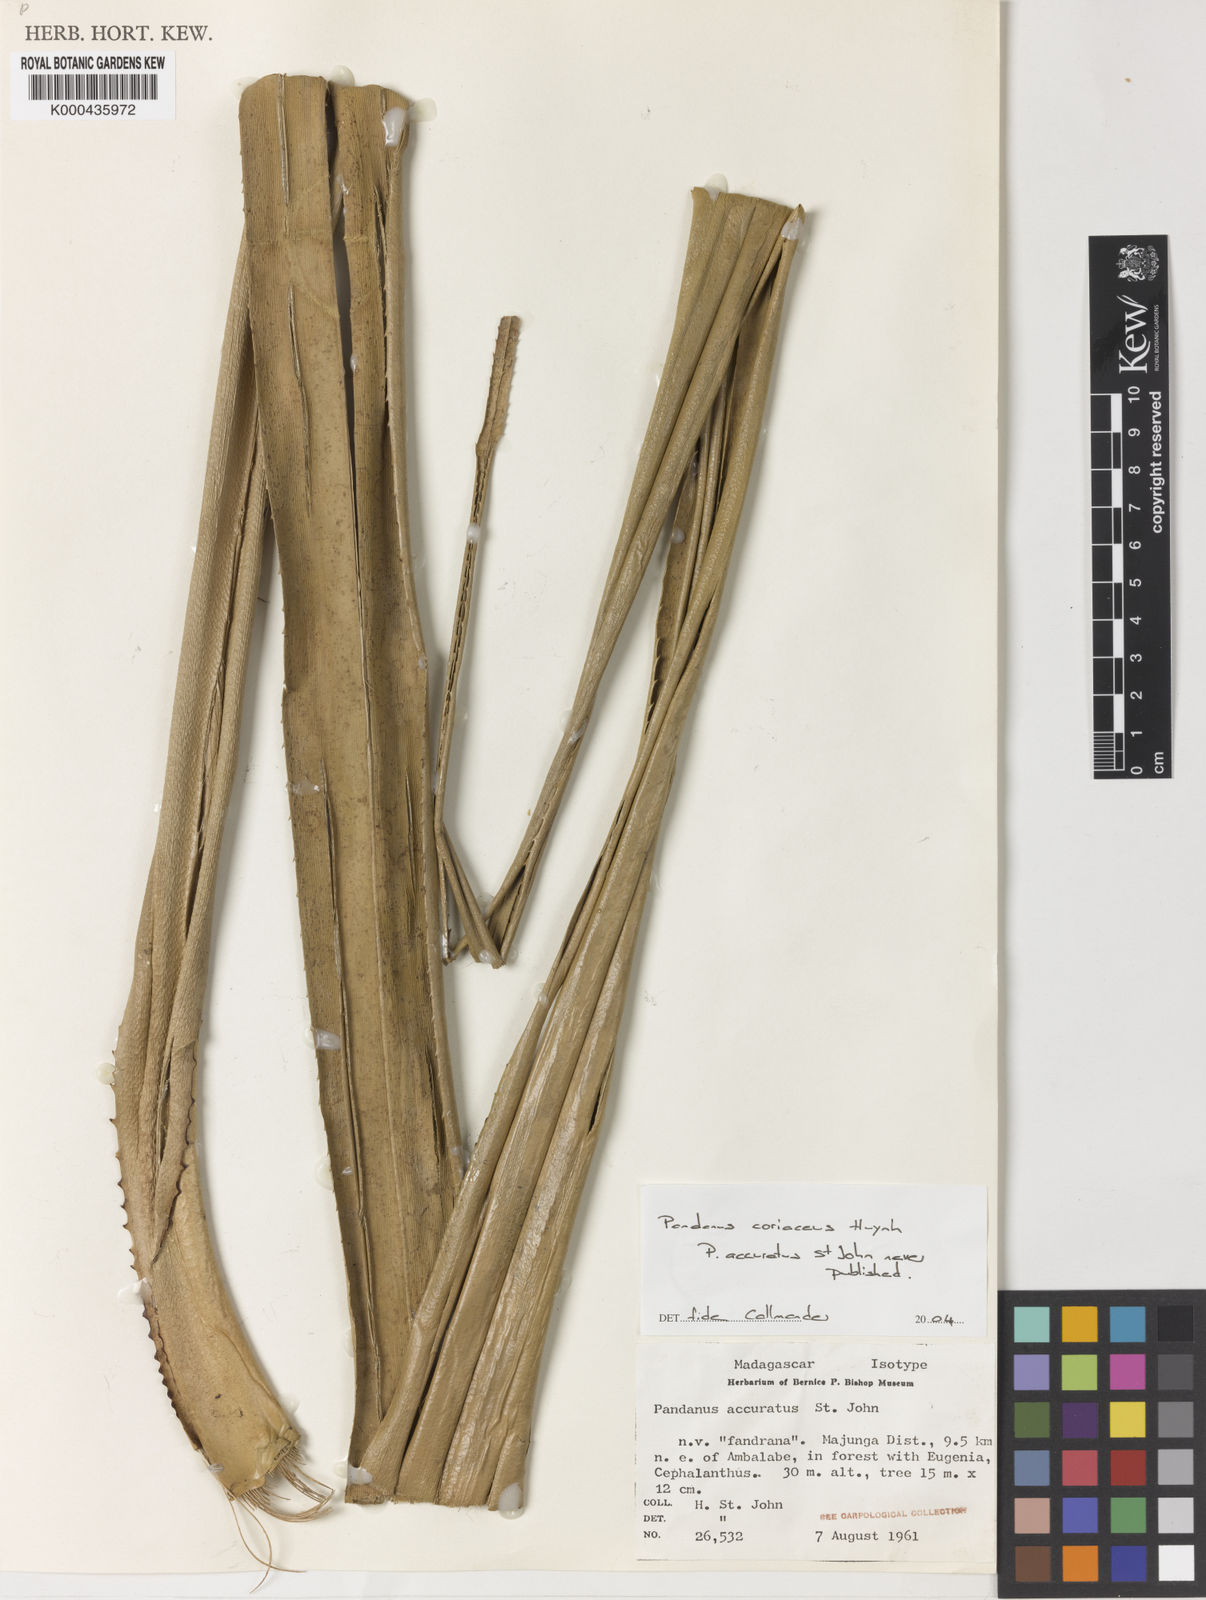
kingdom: Plantae
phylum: Tracheophyta
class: Liliopsida
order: Pandanales
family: Pandanaceae
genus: Pandanus
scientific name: Pandanus coriaceus
